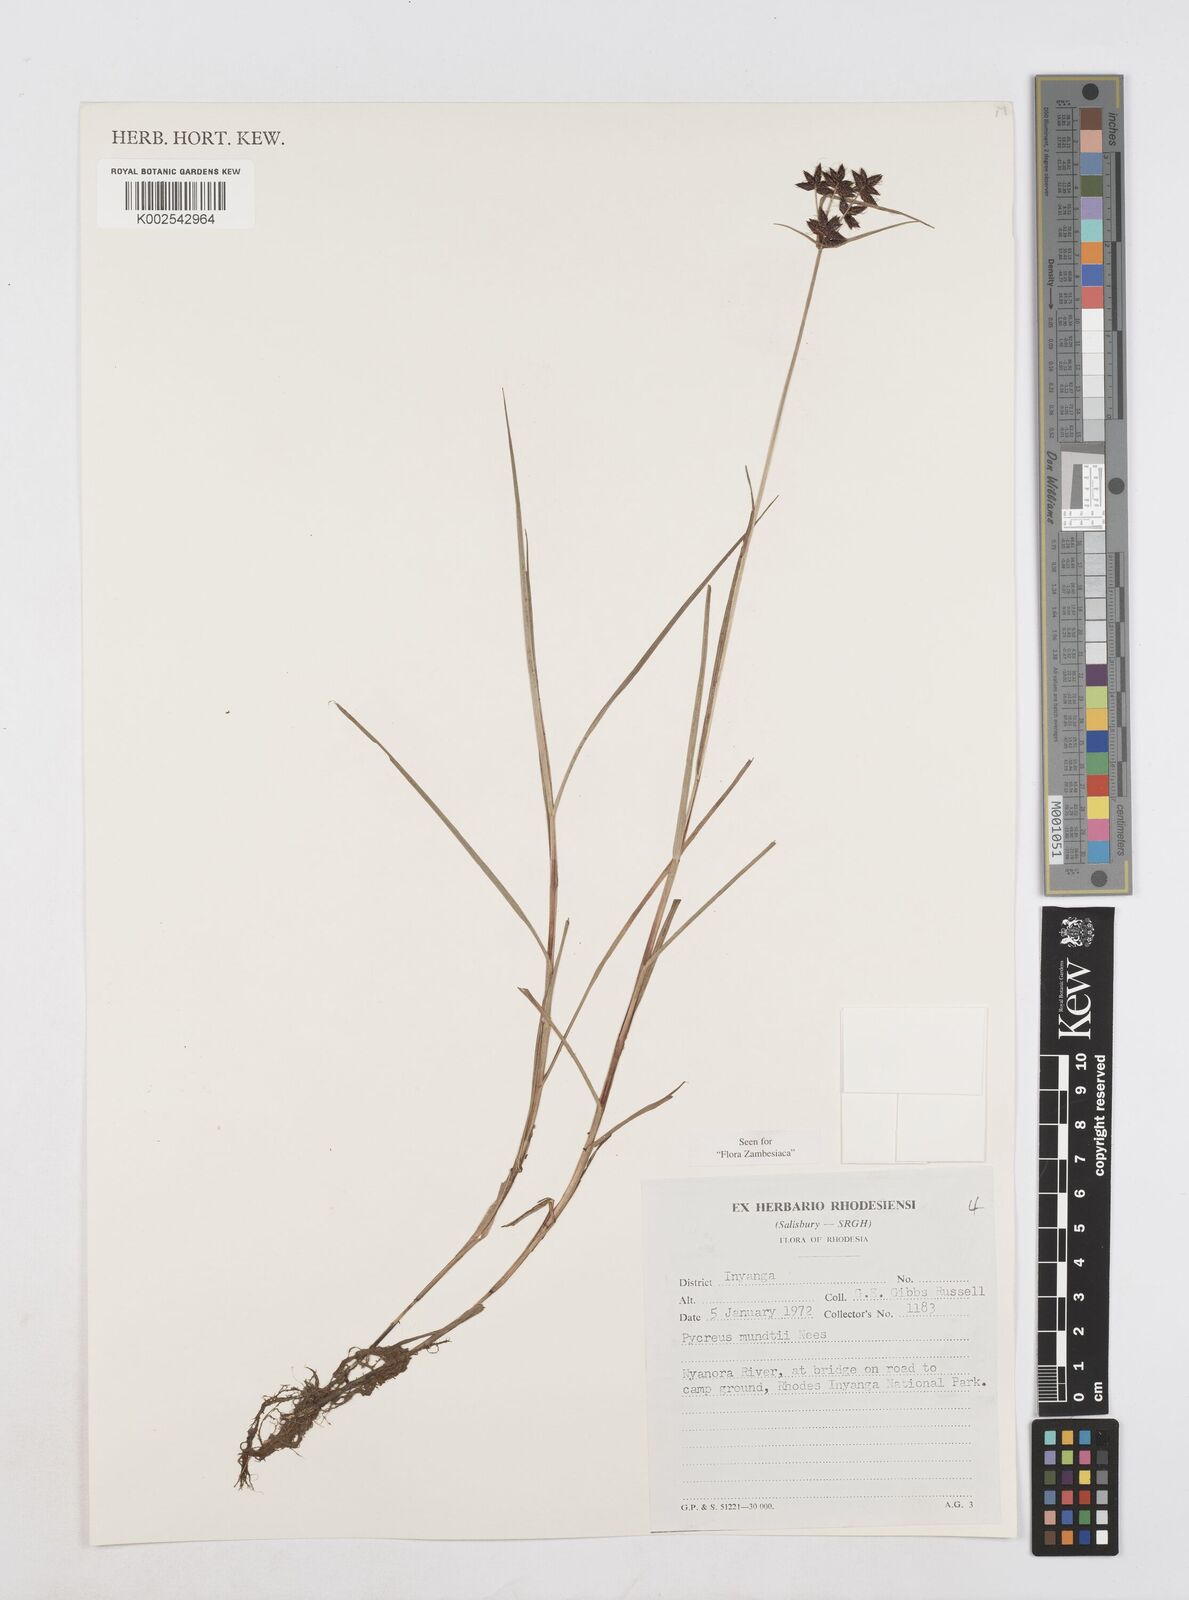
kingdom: Plantae
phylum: Tracheophyta
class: Liliopsida
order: Poales
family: Cyperaceae
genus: Cyperus
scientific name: Cyperus mundii
